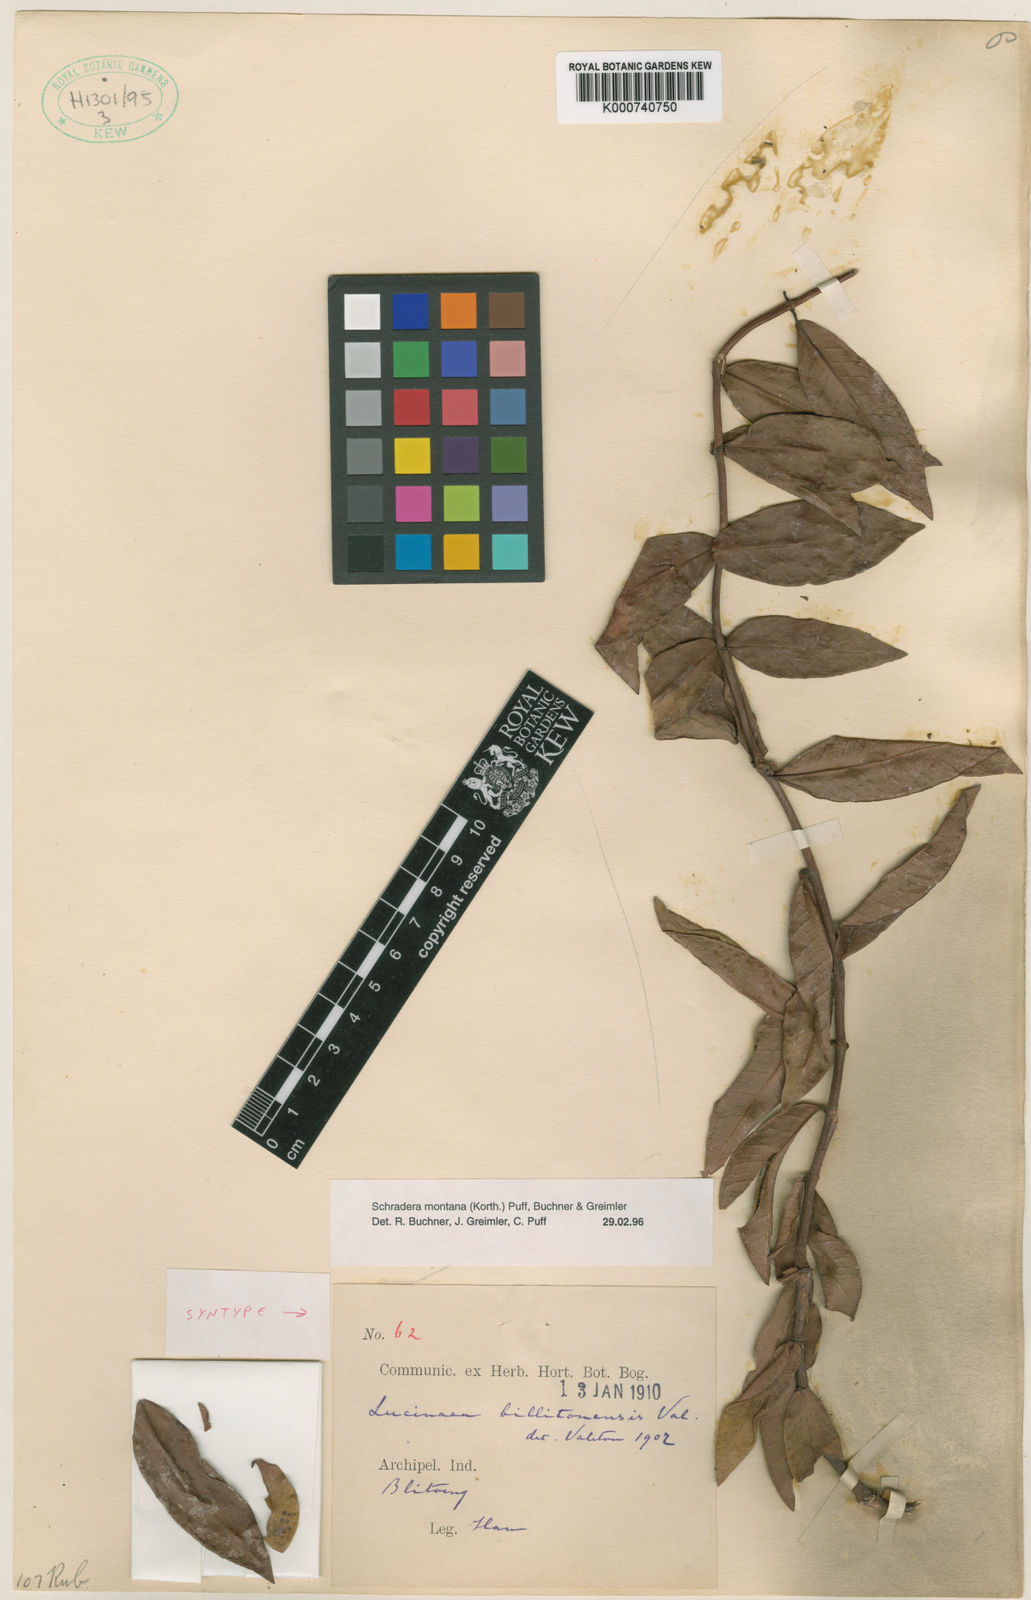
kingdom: Plantae
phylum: Tracheophyta
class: Magnoliopsida
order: Gentianales
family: Rubiaceae
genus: Schradera
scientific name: Schradera montana
